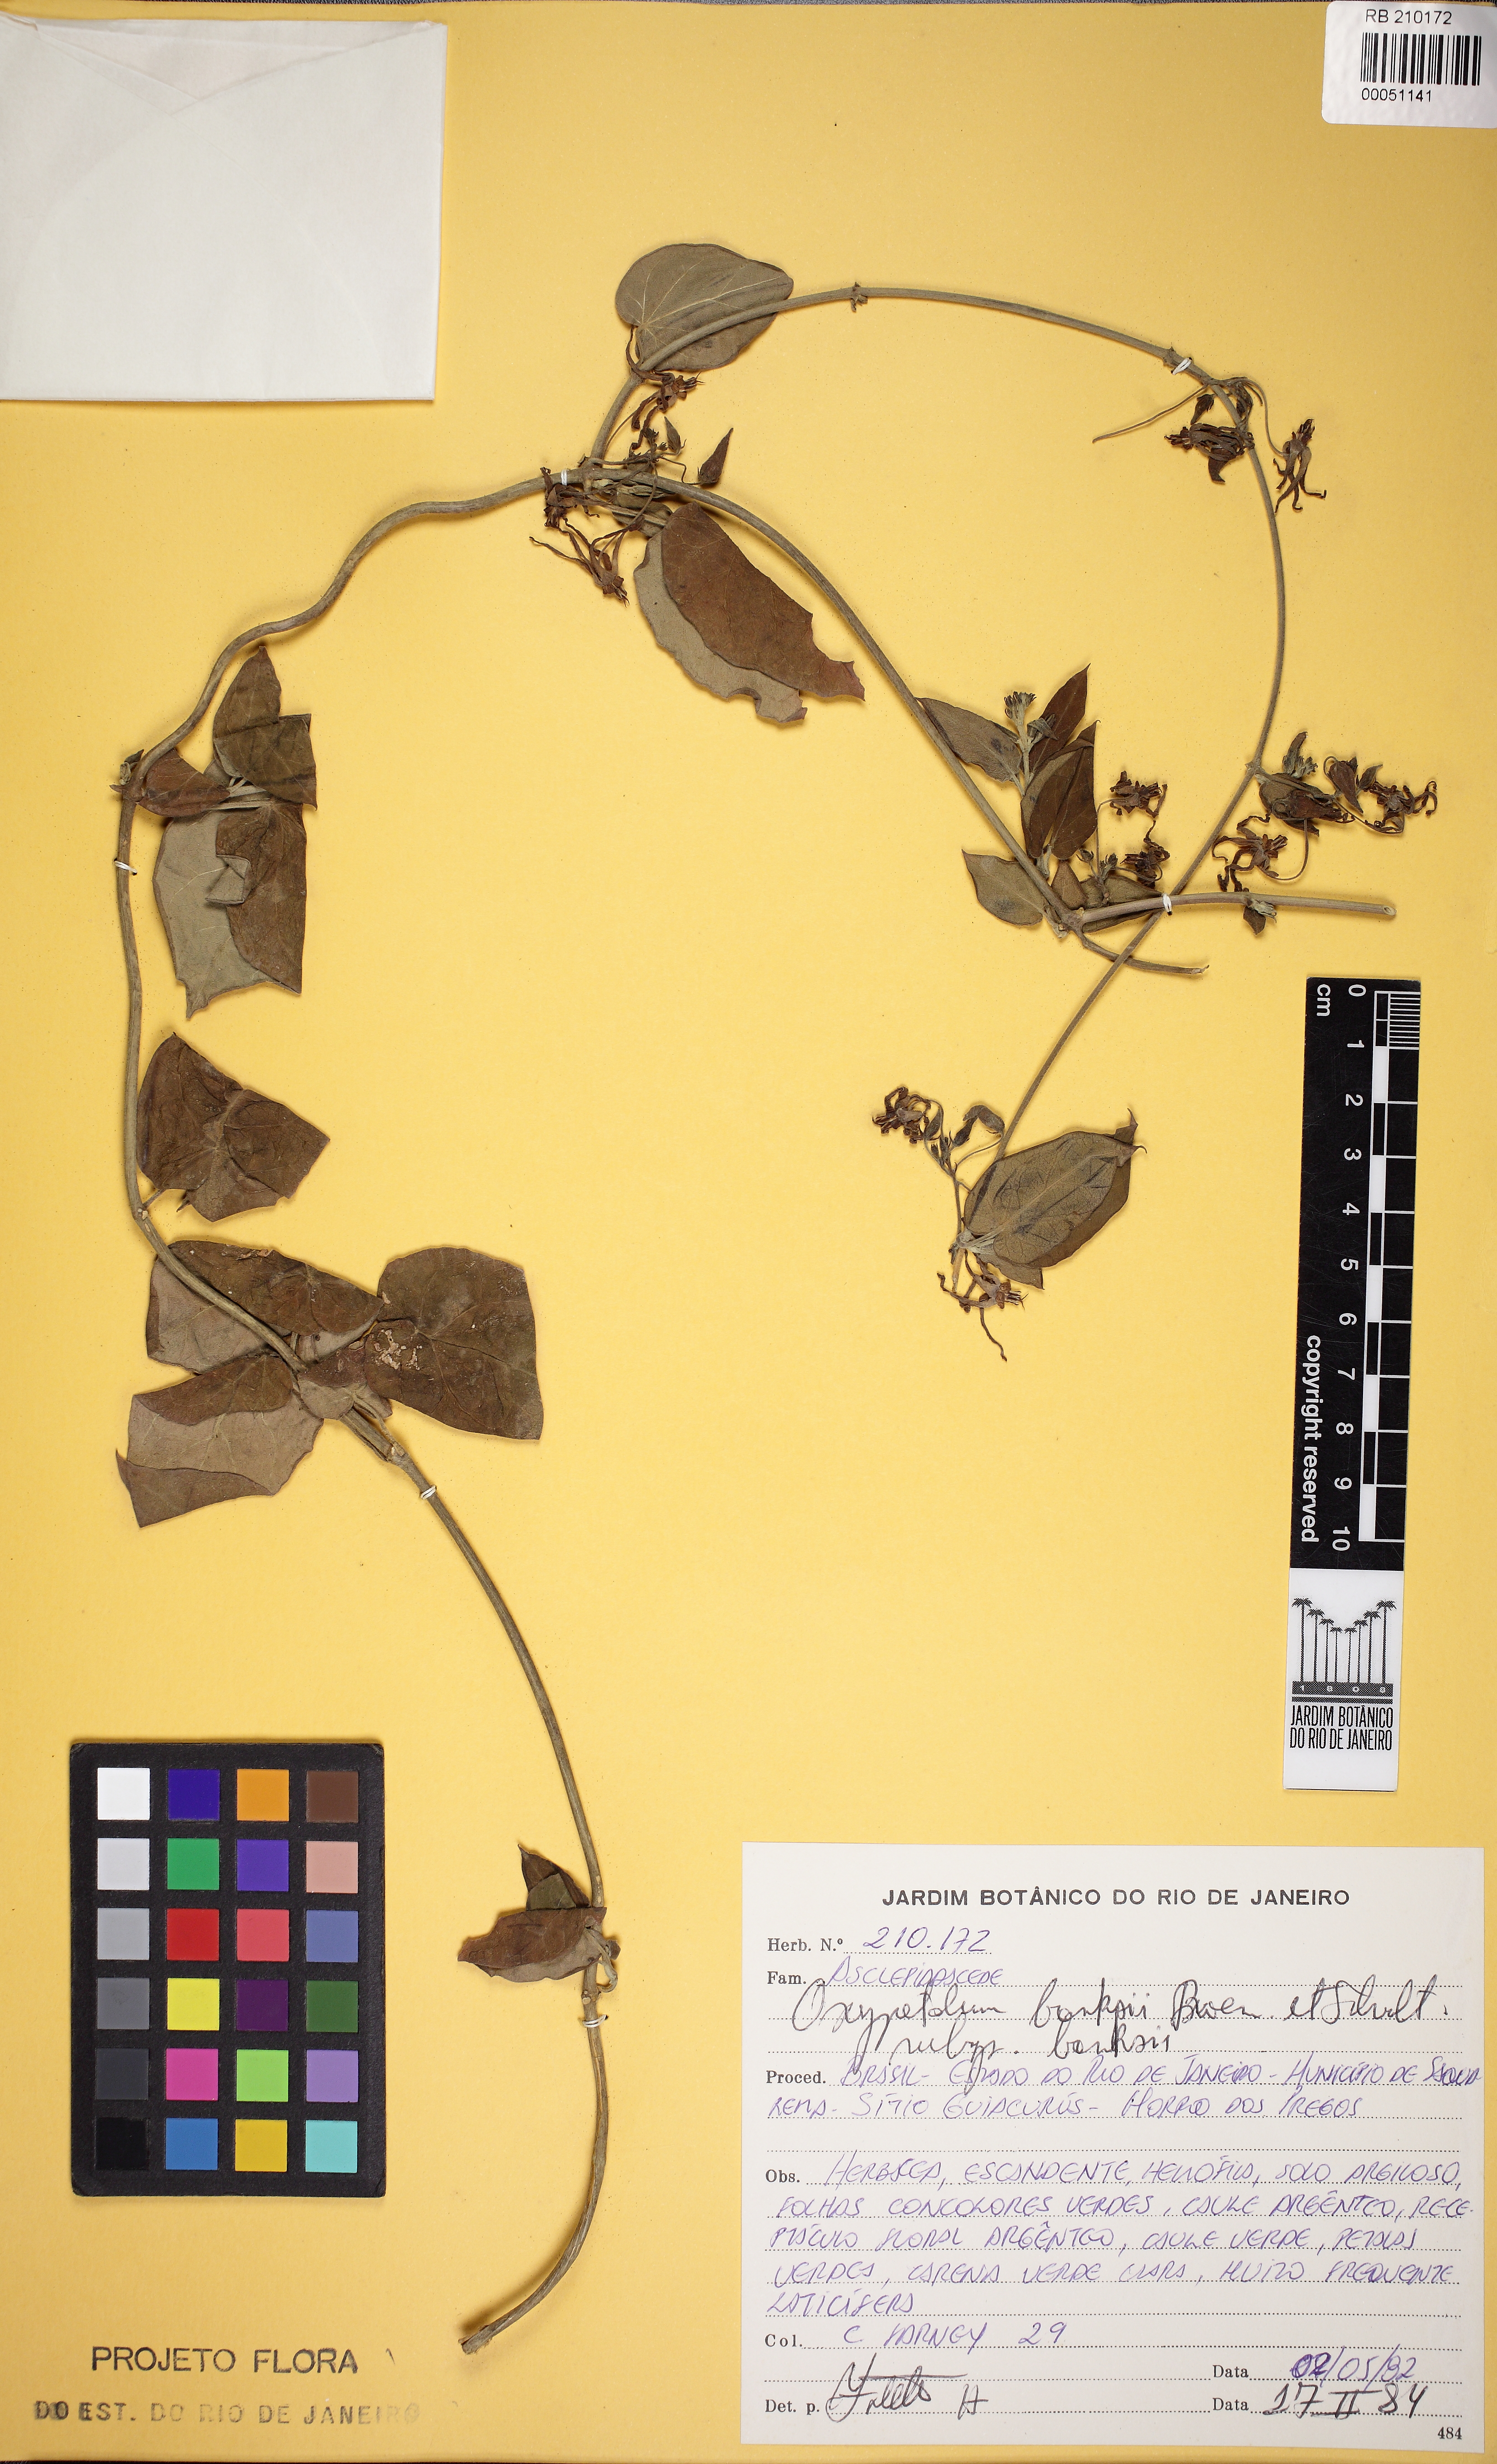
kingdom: Plantae
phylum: Tracheophyta
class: Magnoliopsida
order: Gentianales
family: Apocynaceae
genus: Oxypetalum
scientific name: Oxypetalum banksii
